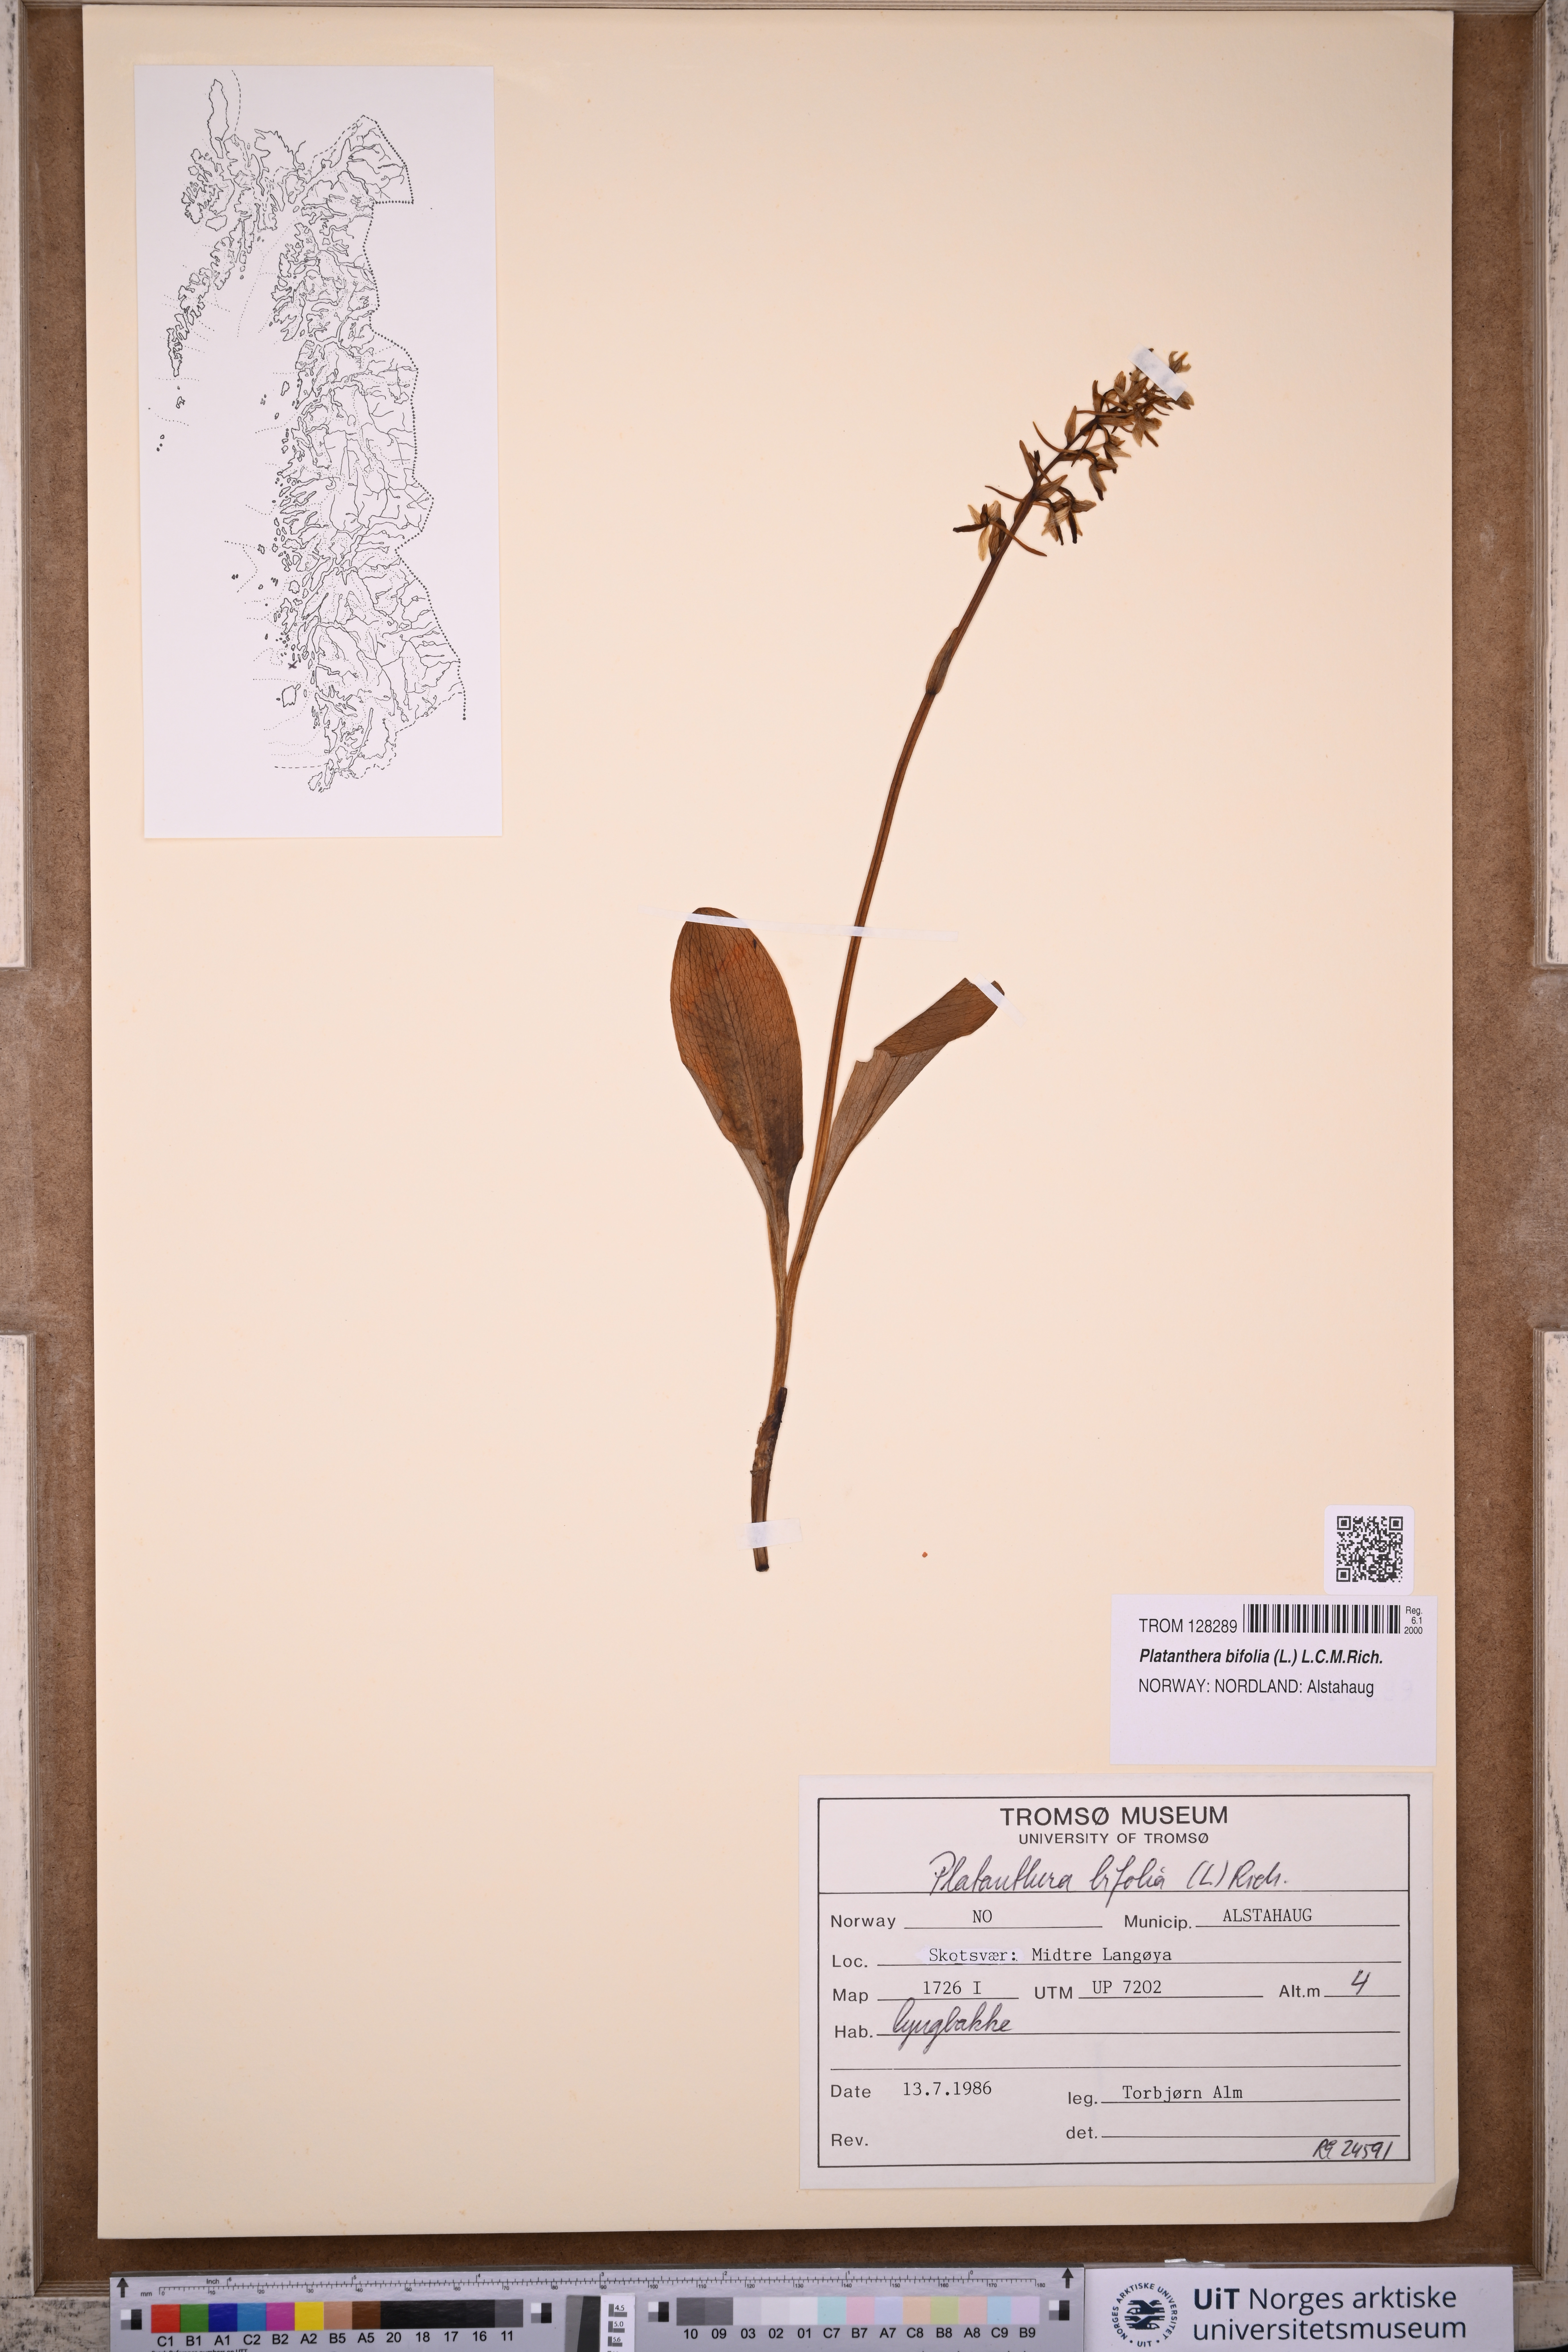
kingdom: Plantae
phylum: Tracheophyta
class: Liliopsida
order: Asparagales
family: Orchidaceae
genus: Platanthera
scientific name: Platanthera bifolia
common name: Lesser butterfly-orchid
